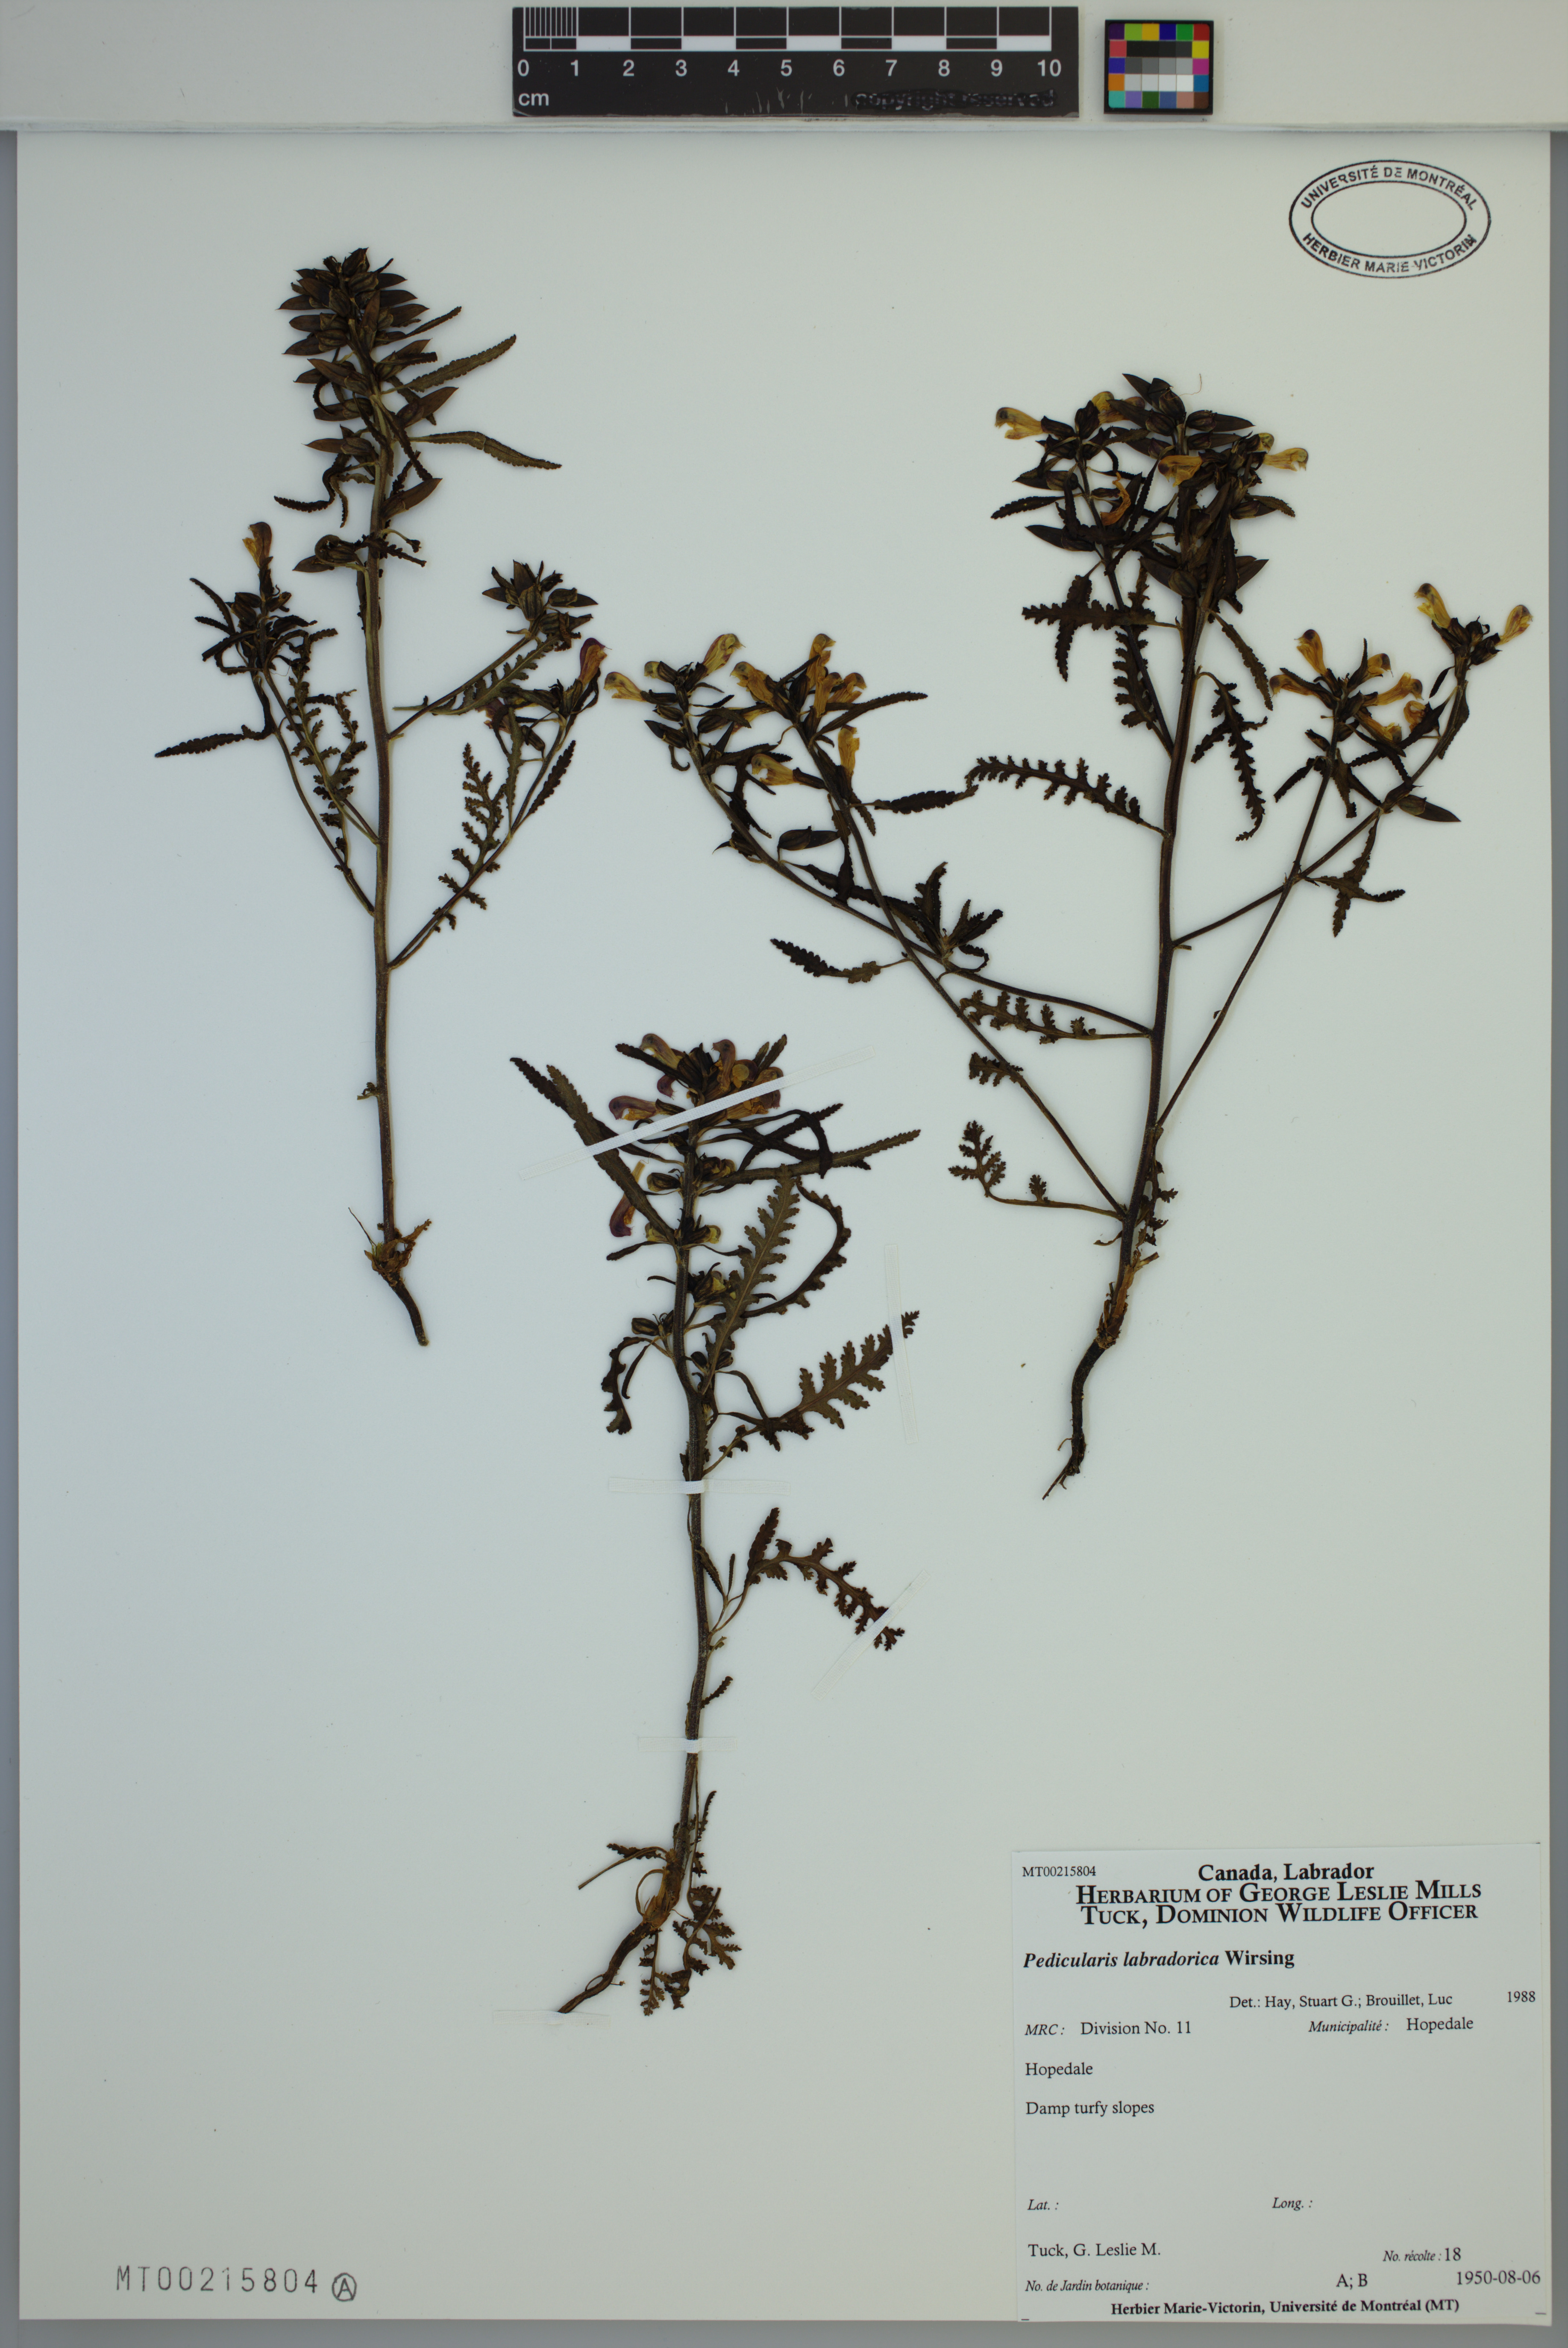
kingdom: Plantae
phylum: Tracheophyta
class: Magnoliopsida
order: Lamiales
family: Orobanchaceae
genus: Pedicularis
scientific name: Pedicularis labradorica
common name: Labrador lousewort
